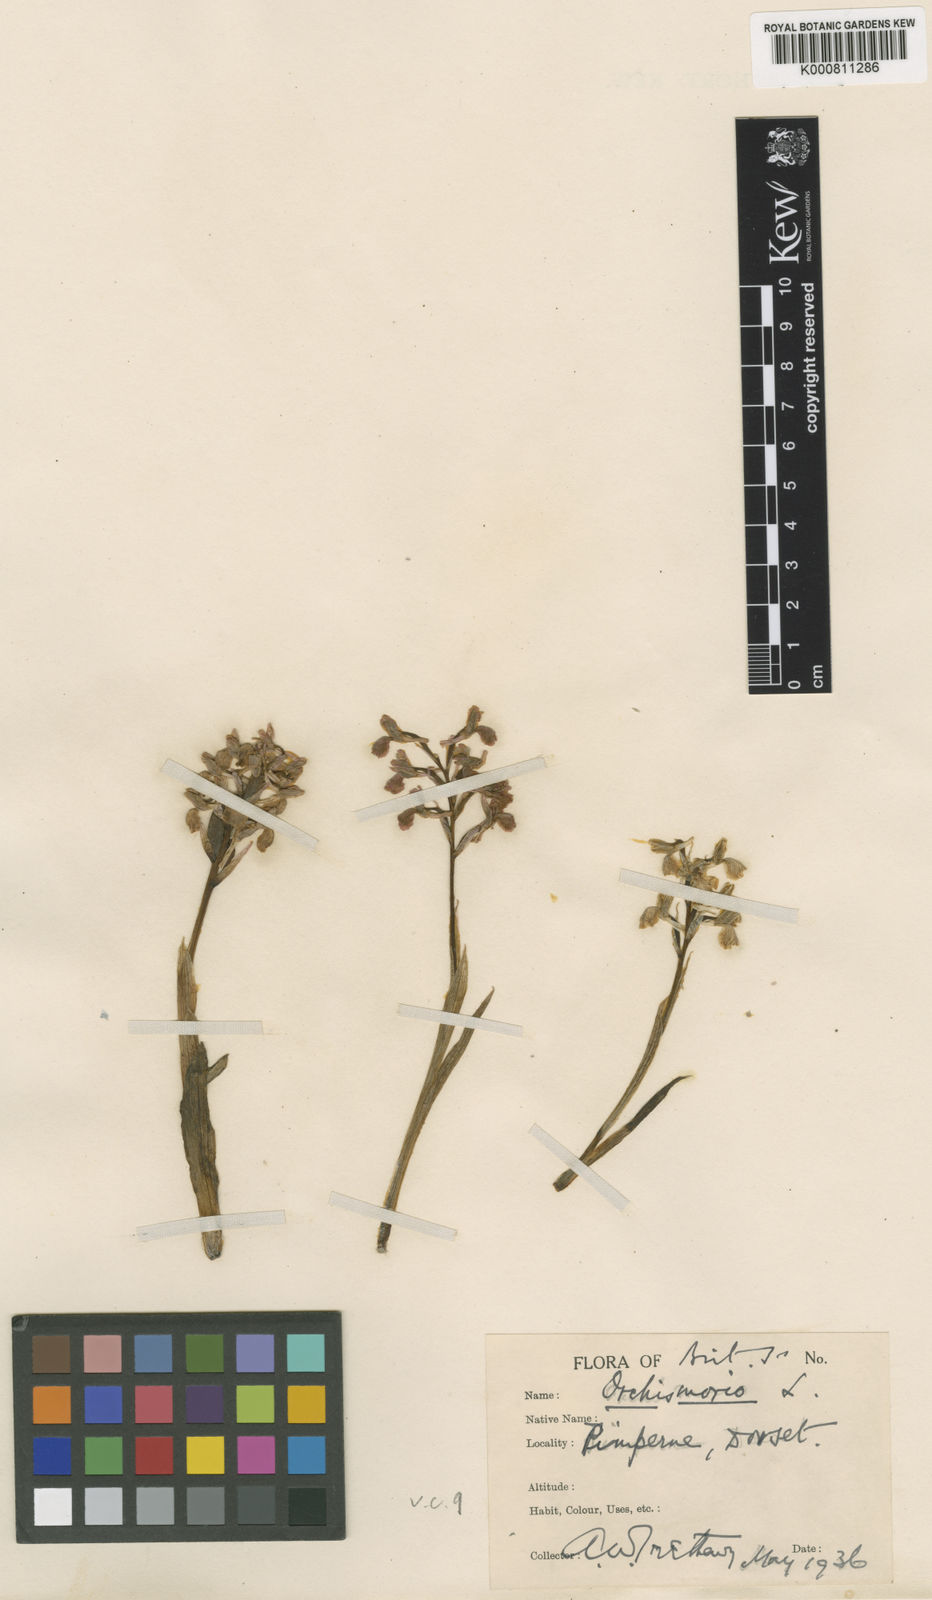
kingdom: Plantae
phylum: Tracheophyta
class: Liliopsida
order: Asparagales
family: Orchidaceae
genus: Anacamptis
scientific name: Anacamptis morio
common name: Green-winged orchid
